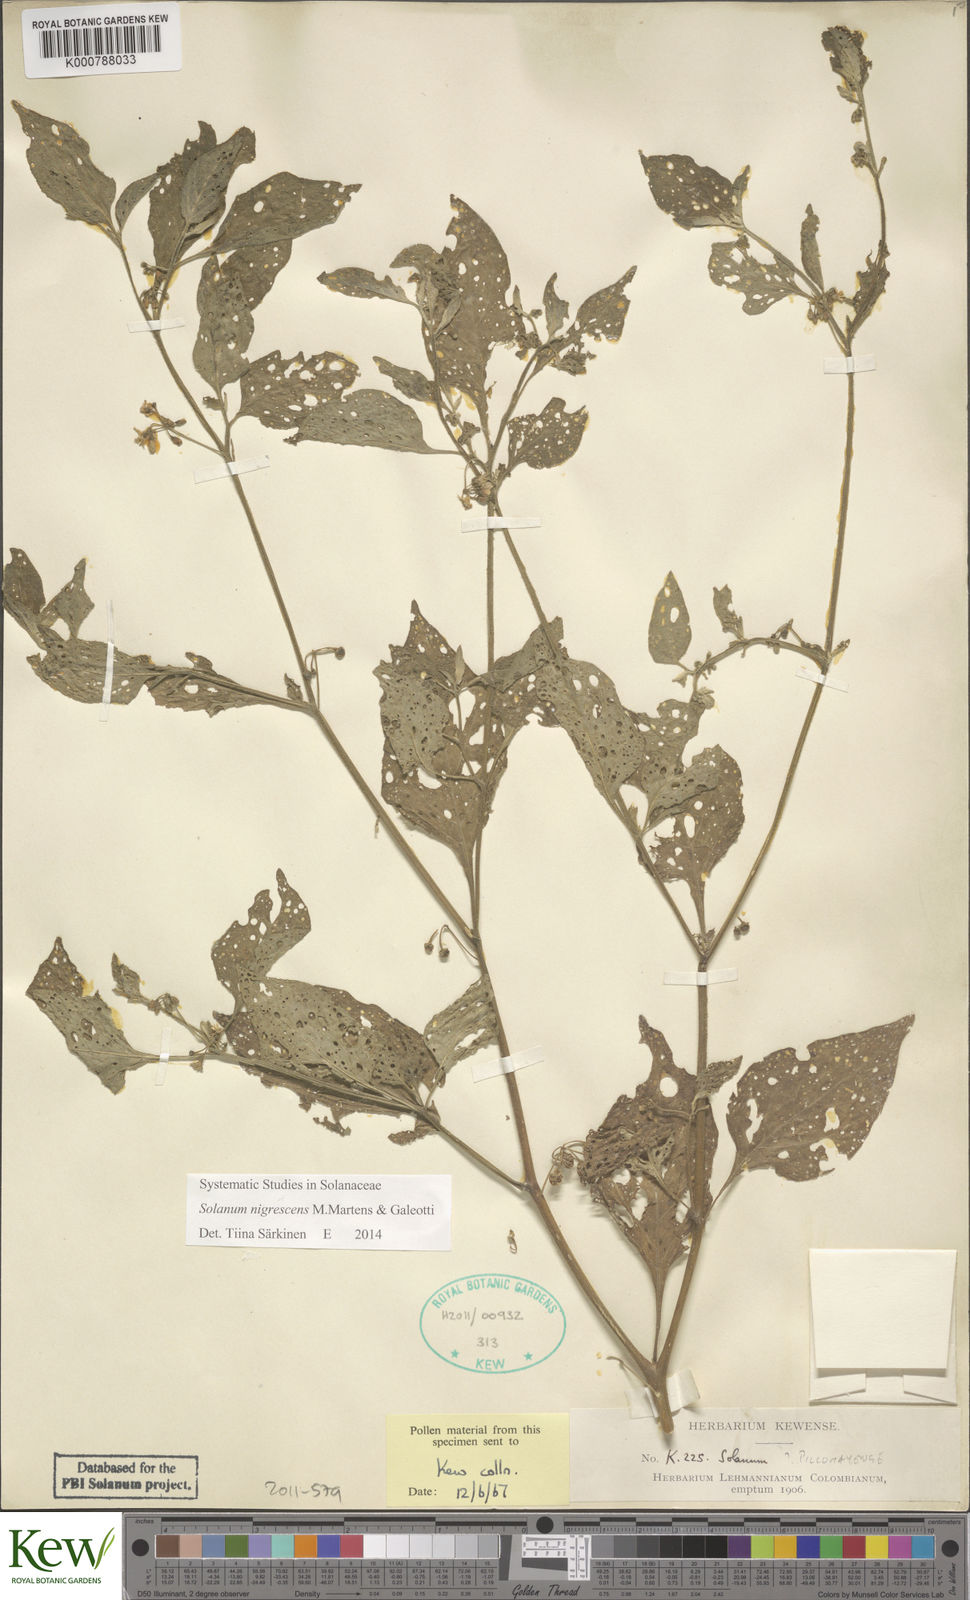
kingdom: Plantae
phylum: Tracheophyta
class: Magnoliopsida
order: Solanales
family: Solanaceae
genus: Solanum
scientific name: Solanum nigrescens
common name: Divine nightshade
